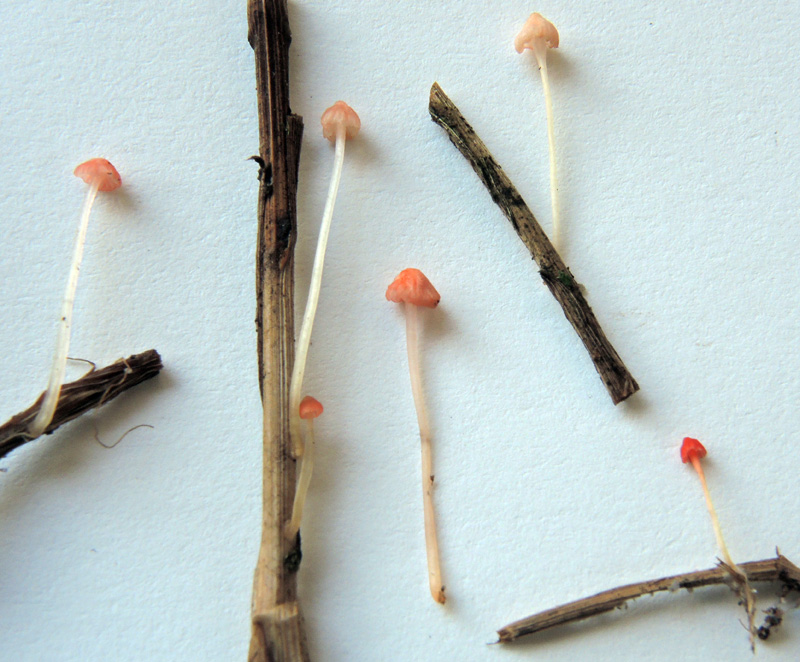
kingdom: Fungi
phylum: Basidiomycota
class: Agaricomycetes
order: Agaricales
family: Mycenaceae
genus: Atheniella
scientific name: Atheniella adonis
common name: rønnerød huesvamp
